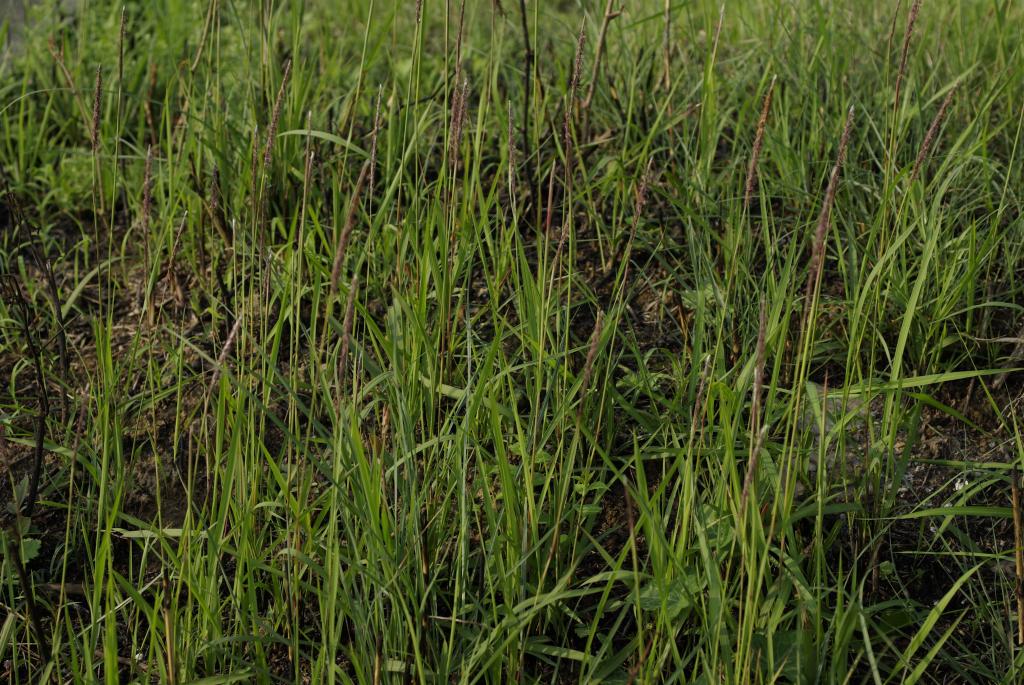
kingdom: Plantae
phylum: Tracheophyta
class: Liliopsida
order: Poales
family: Poaceae
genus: Imperata
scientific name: Imperata cylindrica
